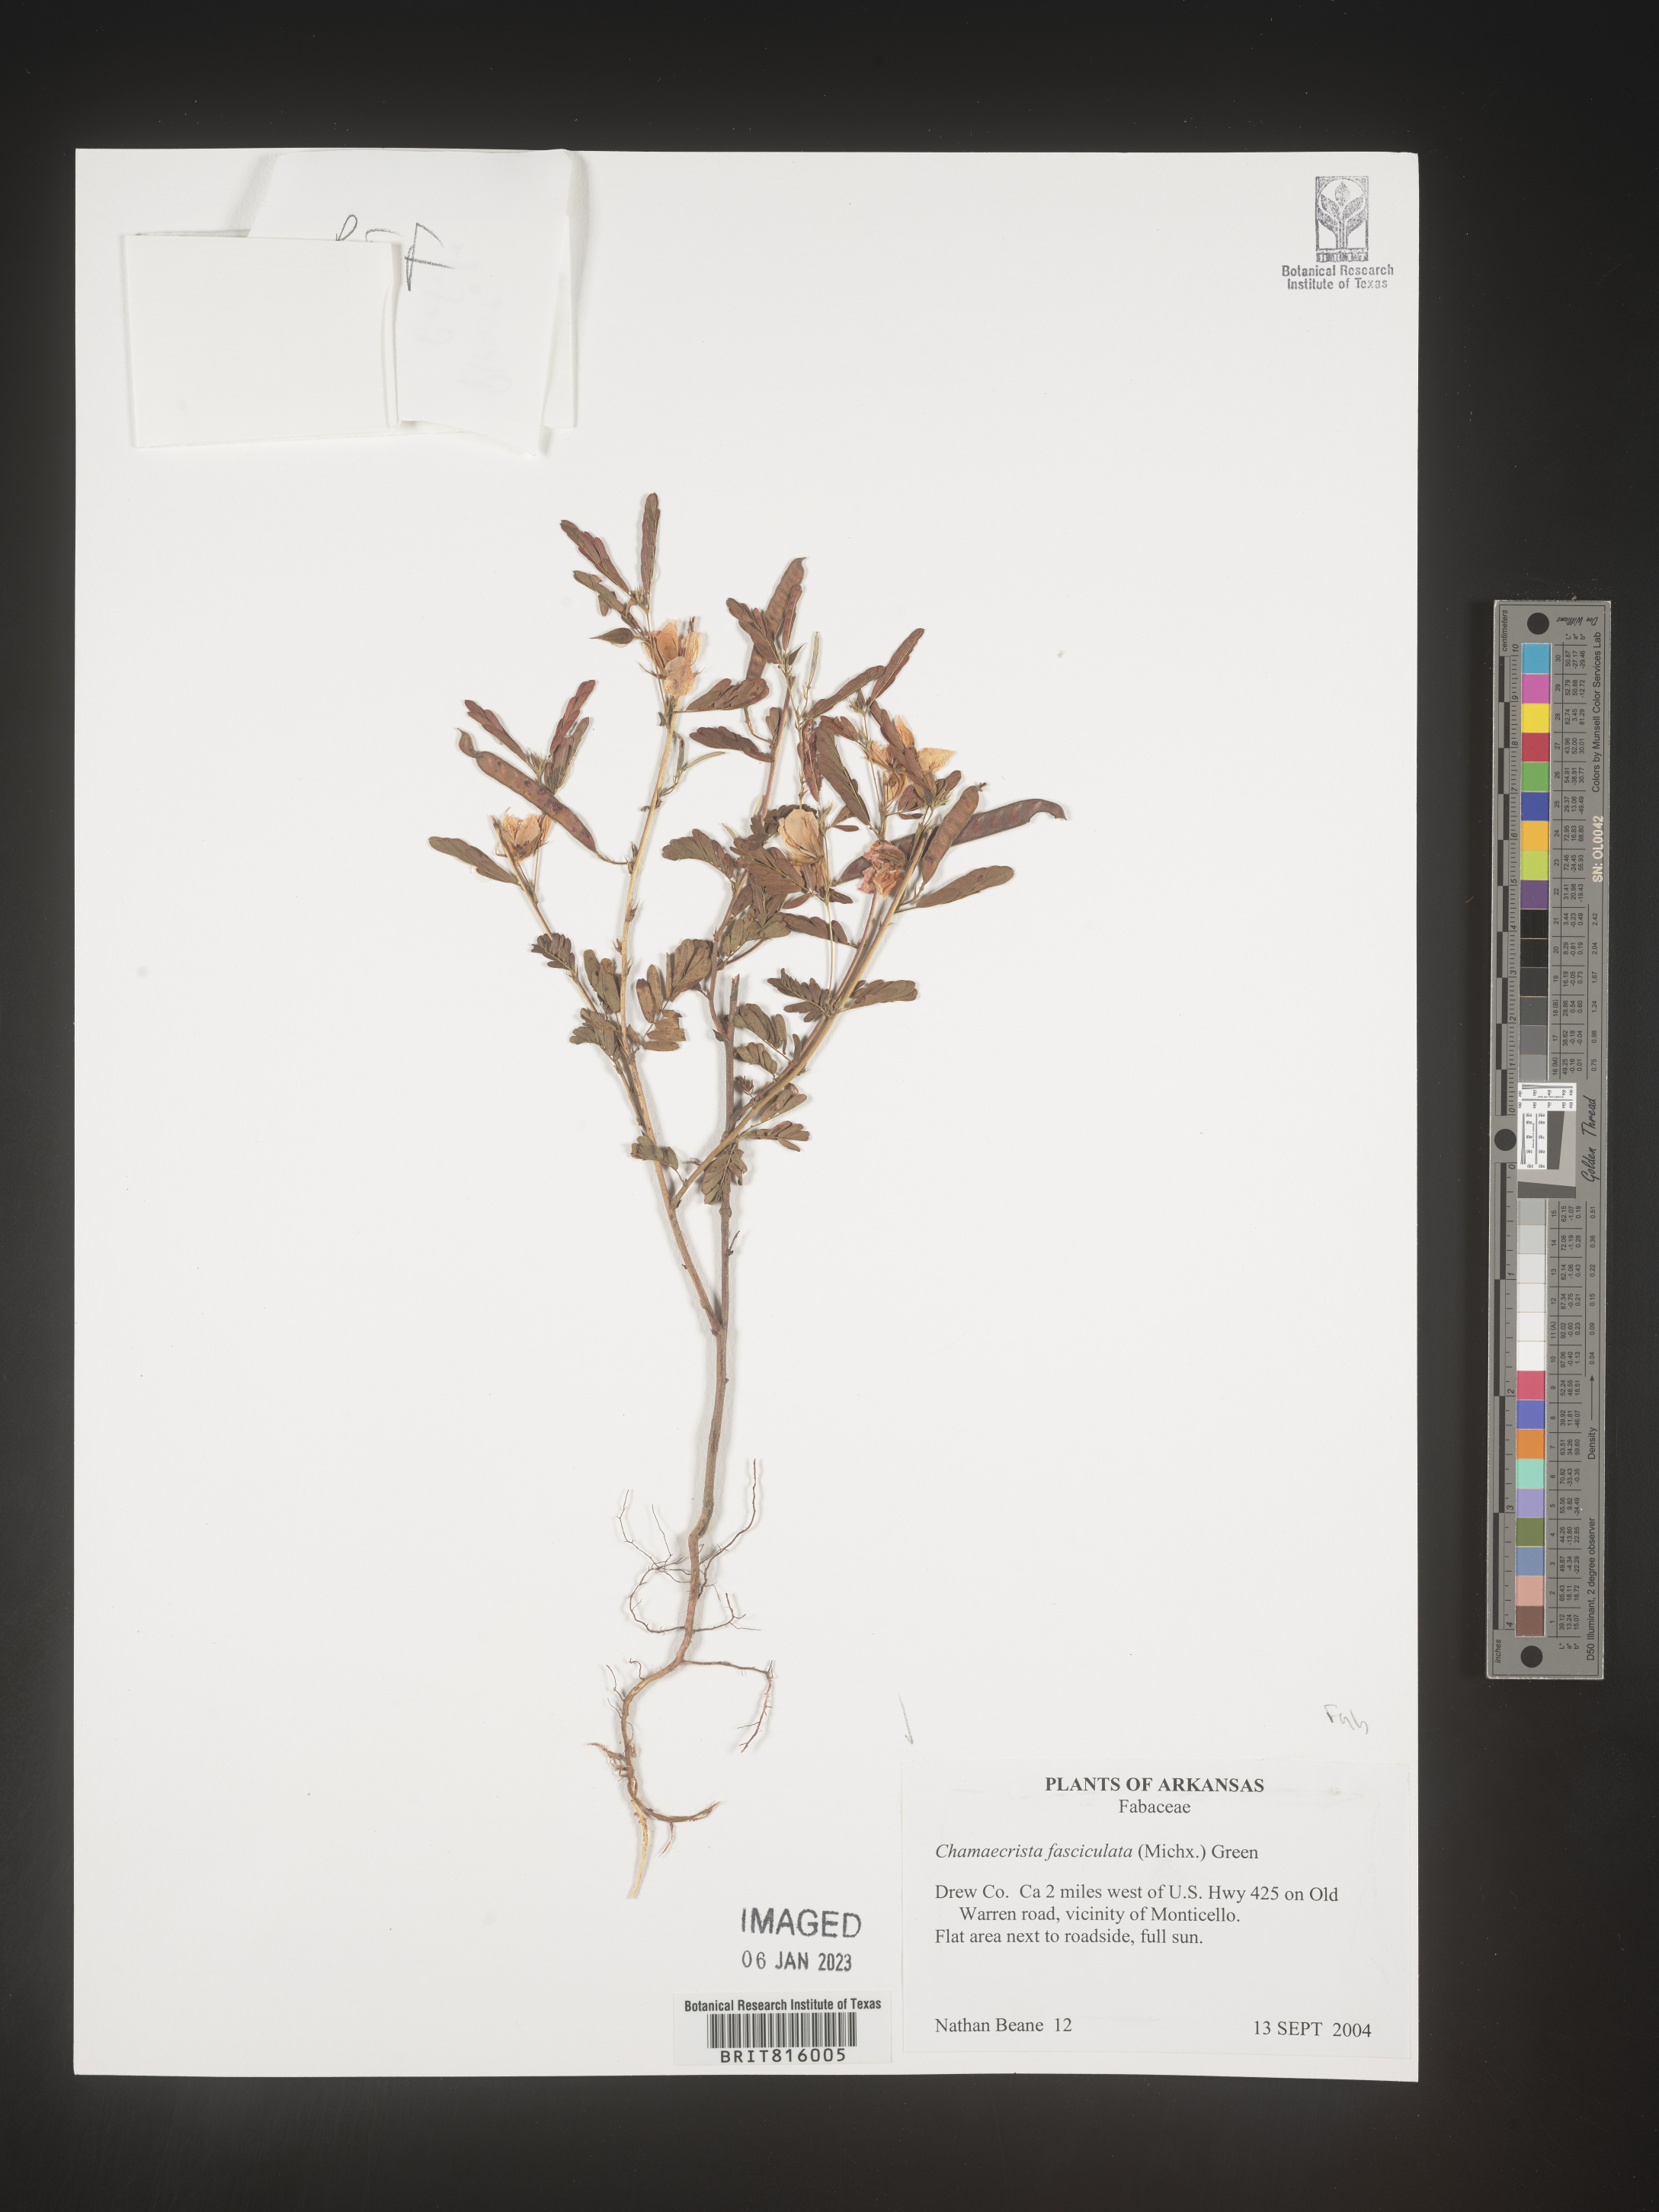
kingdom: Plantae
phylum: Tracheophyta
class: Magnoliopsida
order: Fabales
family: Fabaceae
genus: Chamaecrista
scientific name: Chamaecrista fasciculata
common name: Golden cassia
